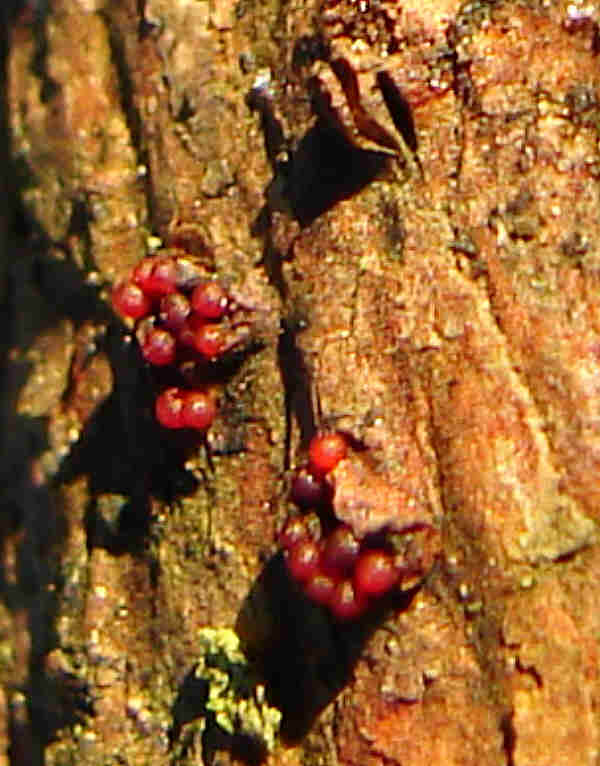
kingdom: Fungi
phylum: Ascomycota
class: Sordariomycetes
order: Hypocreales
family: Nectriaceae
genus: Corinectria
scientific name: Corinectria fuckeliana
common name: grankræft-cinnobersvamp
